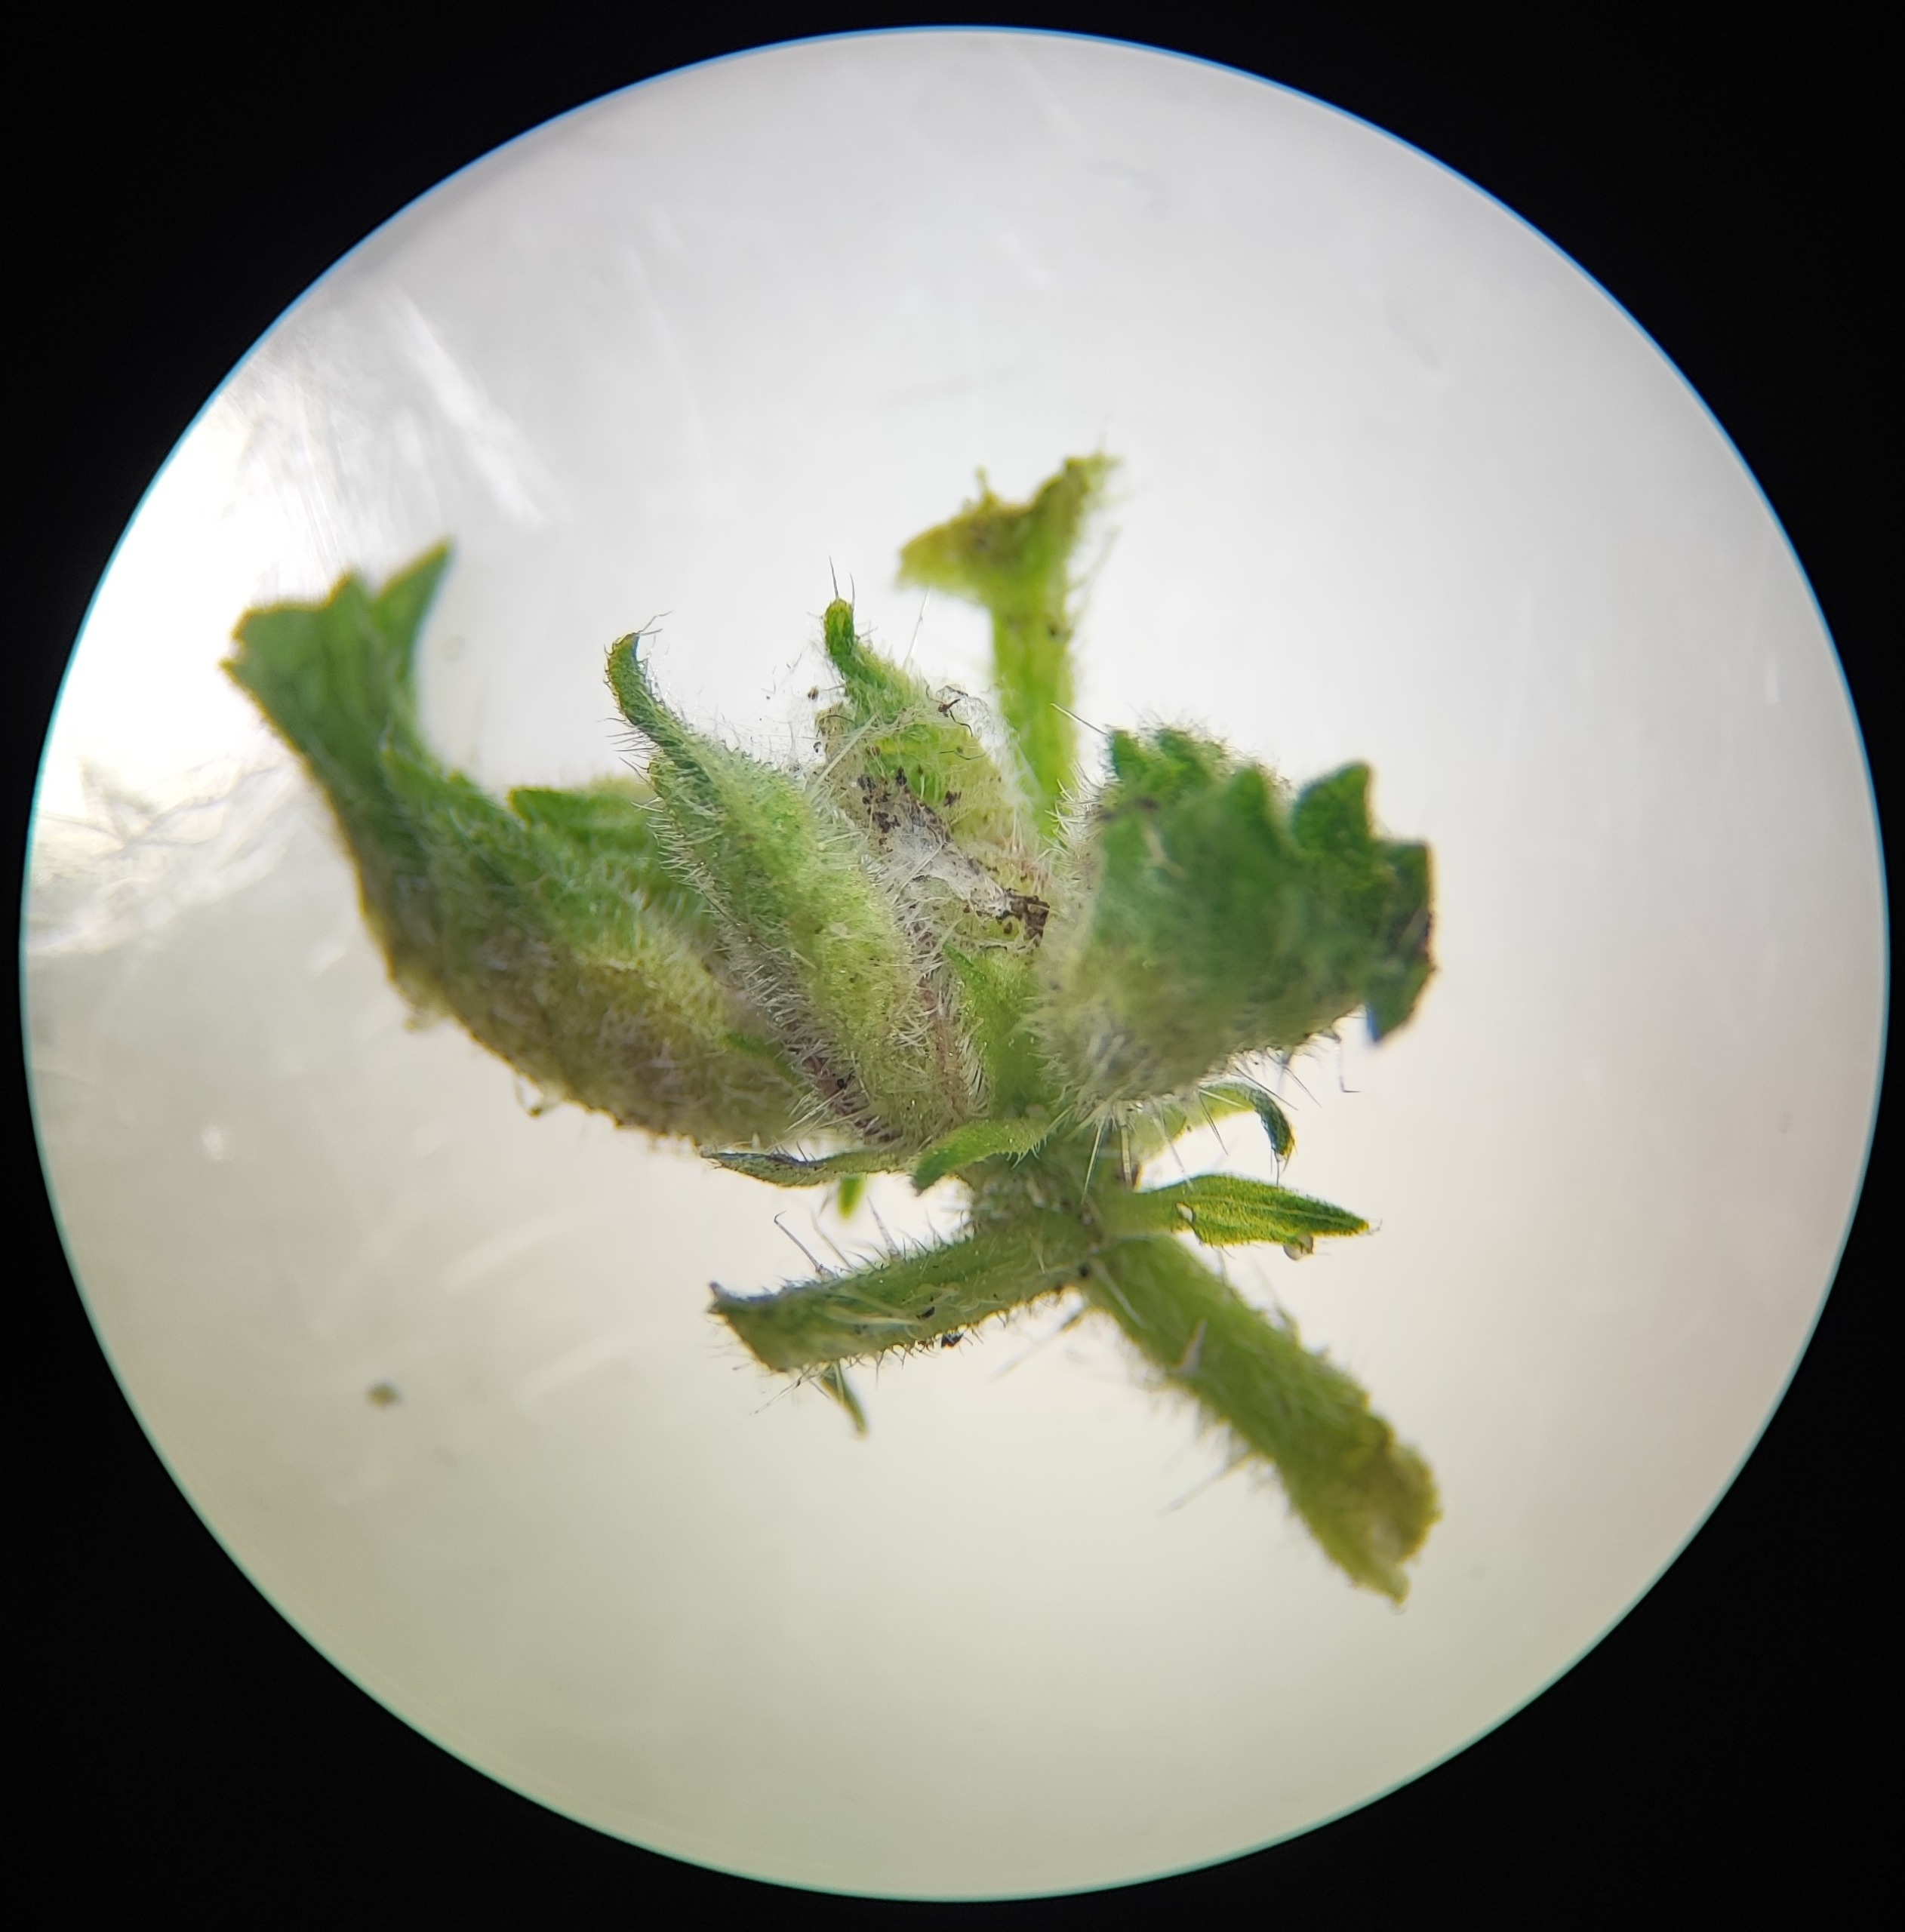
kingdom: Animalia
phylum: Arthropoda
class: Insecta
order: Diptera
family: Cecidomyiidae
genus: Dasineura
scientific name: Dasineura dioicae
